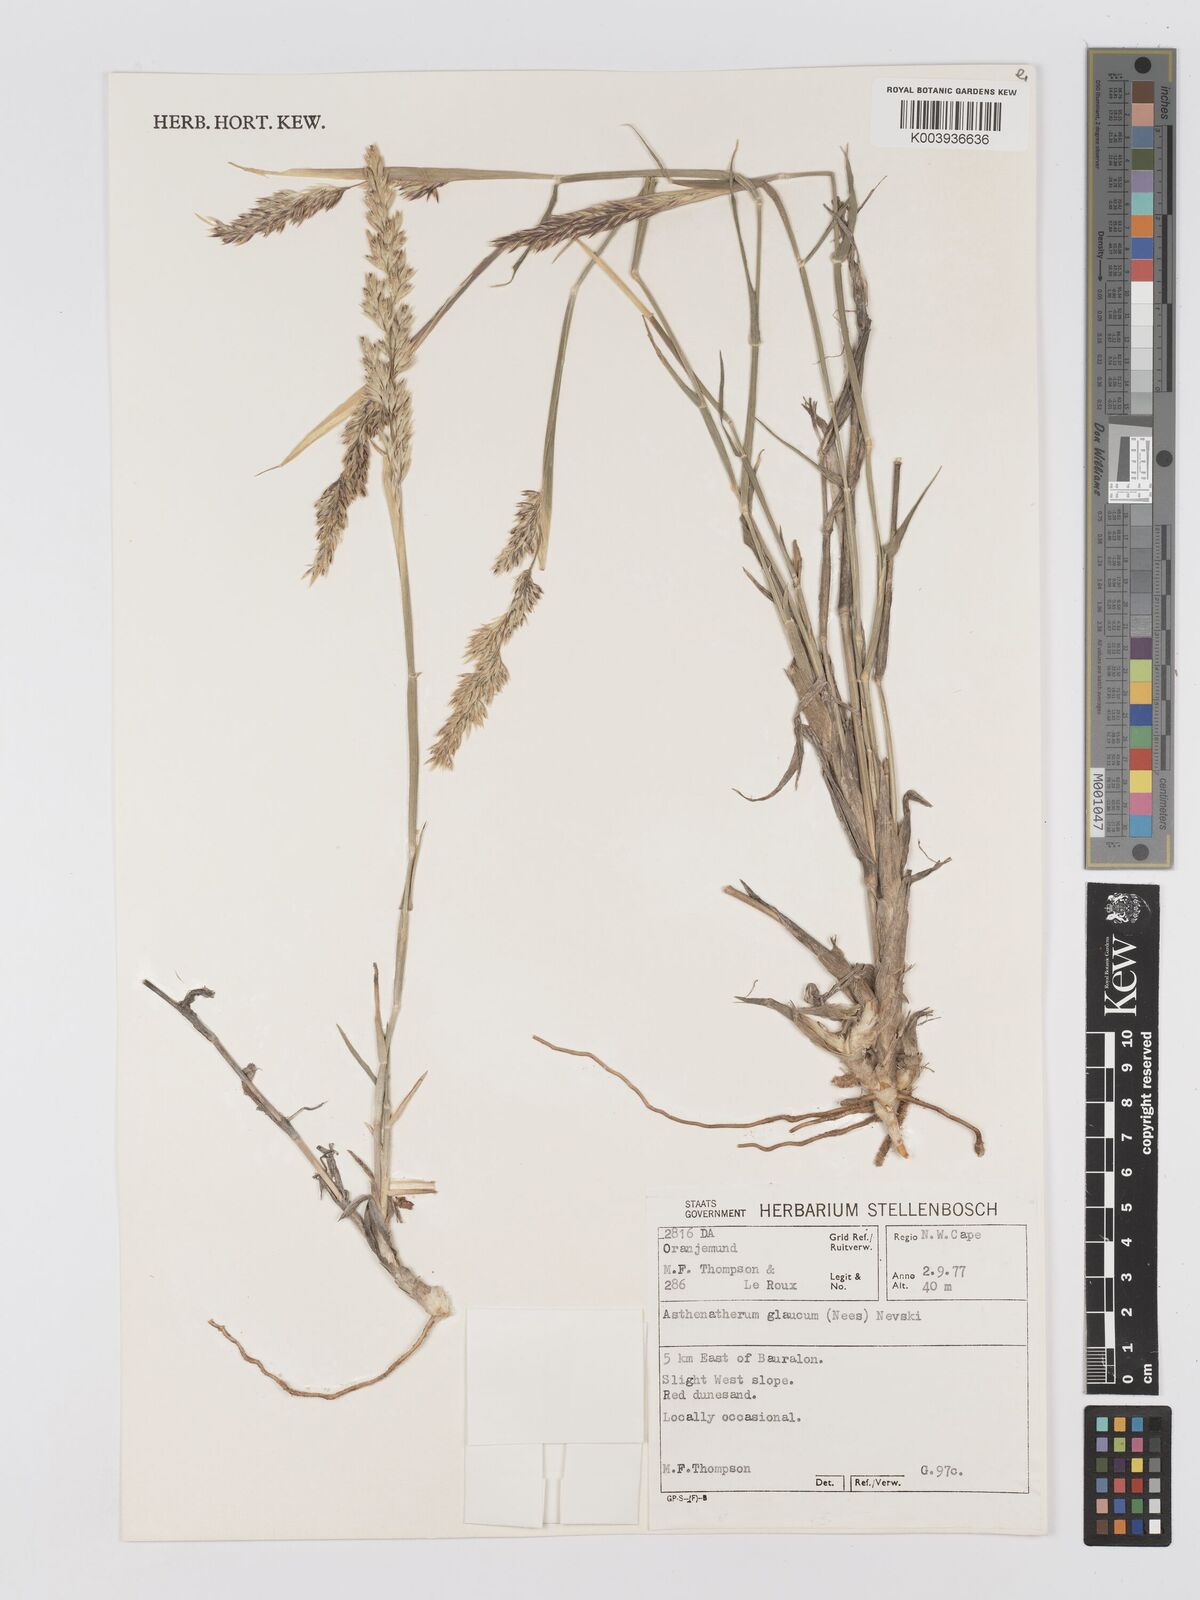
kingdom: Plantae
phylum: Tracheophyta
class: Liliopsida
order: Poales
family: Poaceae
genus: Centropodia
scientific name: Centropodia glauca
